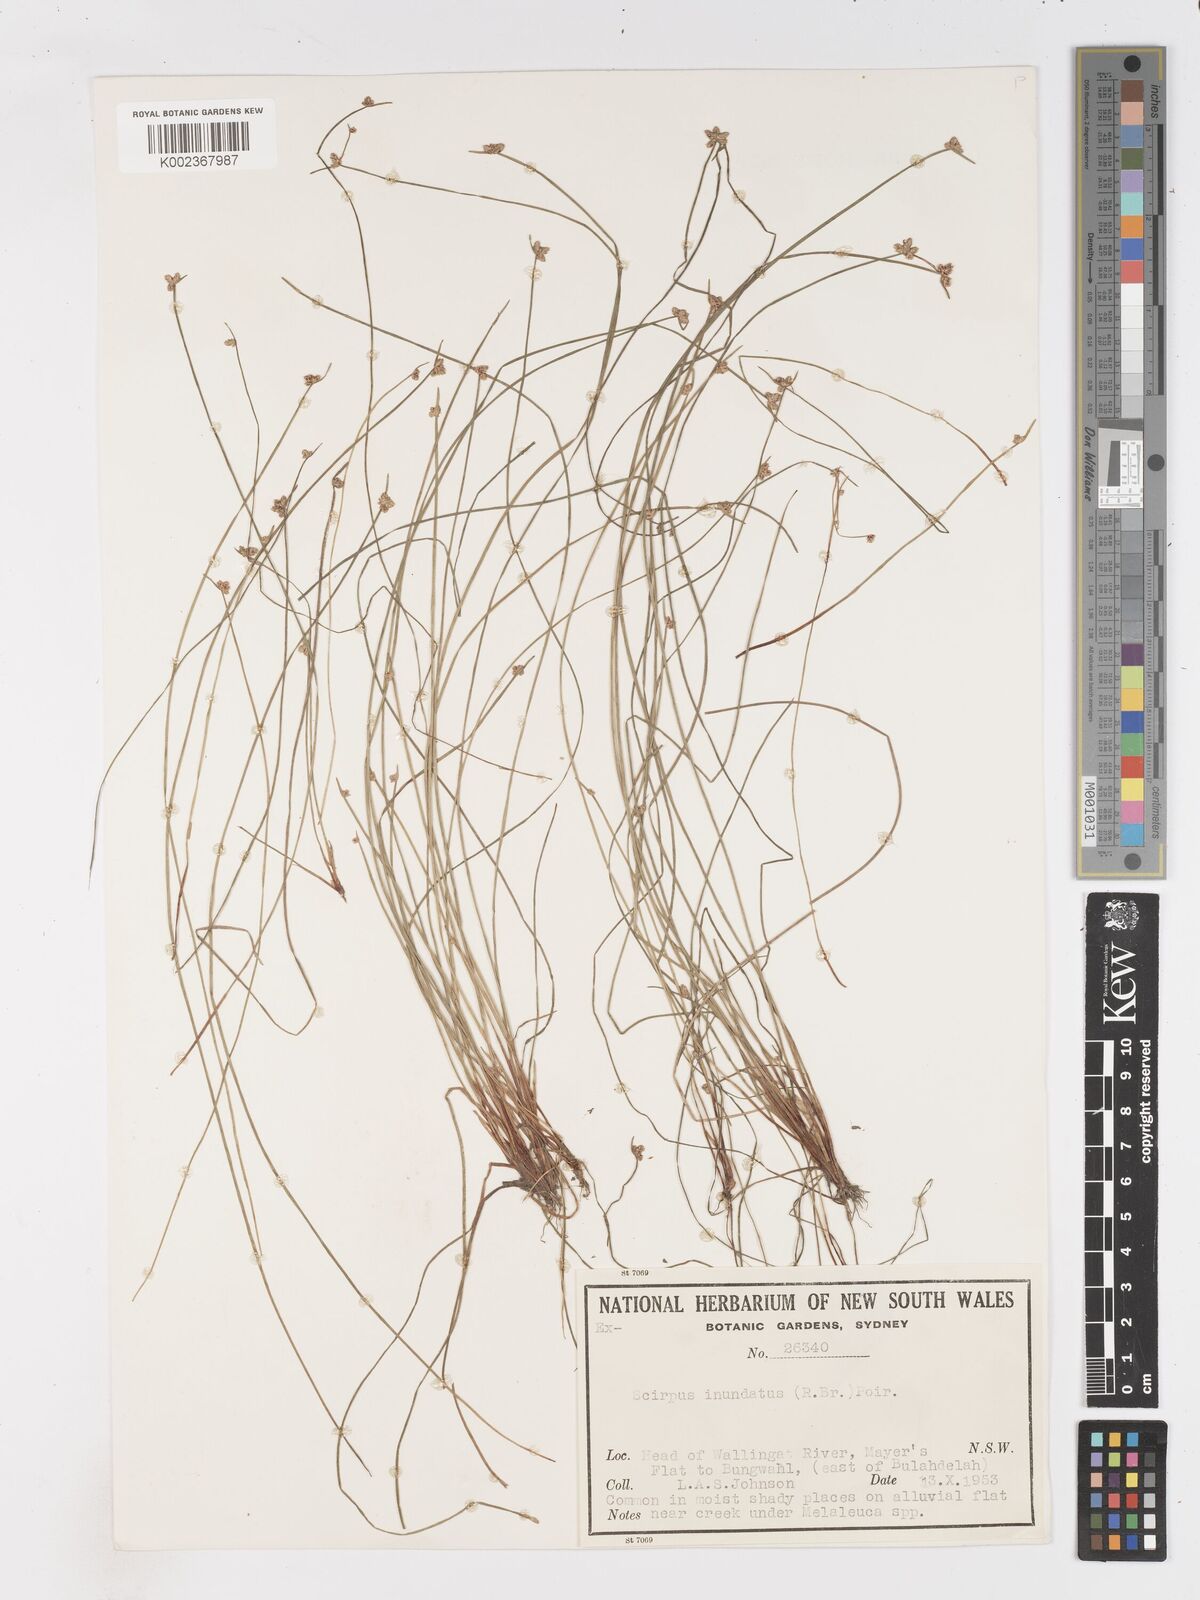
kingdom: Plantae
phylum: Tracheophyta
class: Liliopsida
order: Poales
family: Cyperaceae
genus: Isolepis
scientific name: Isolepis inundata
